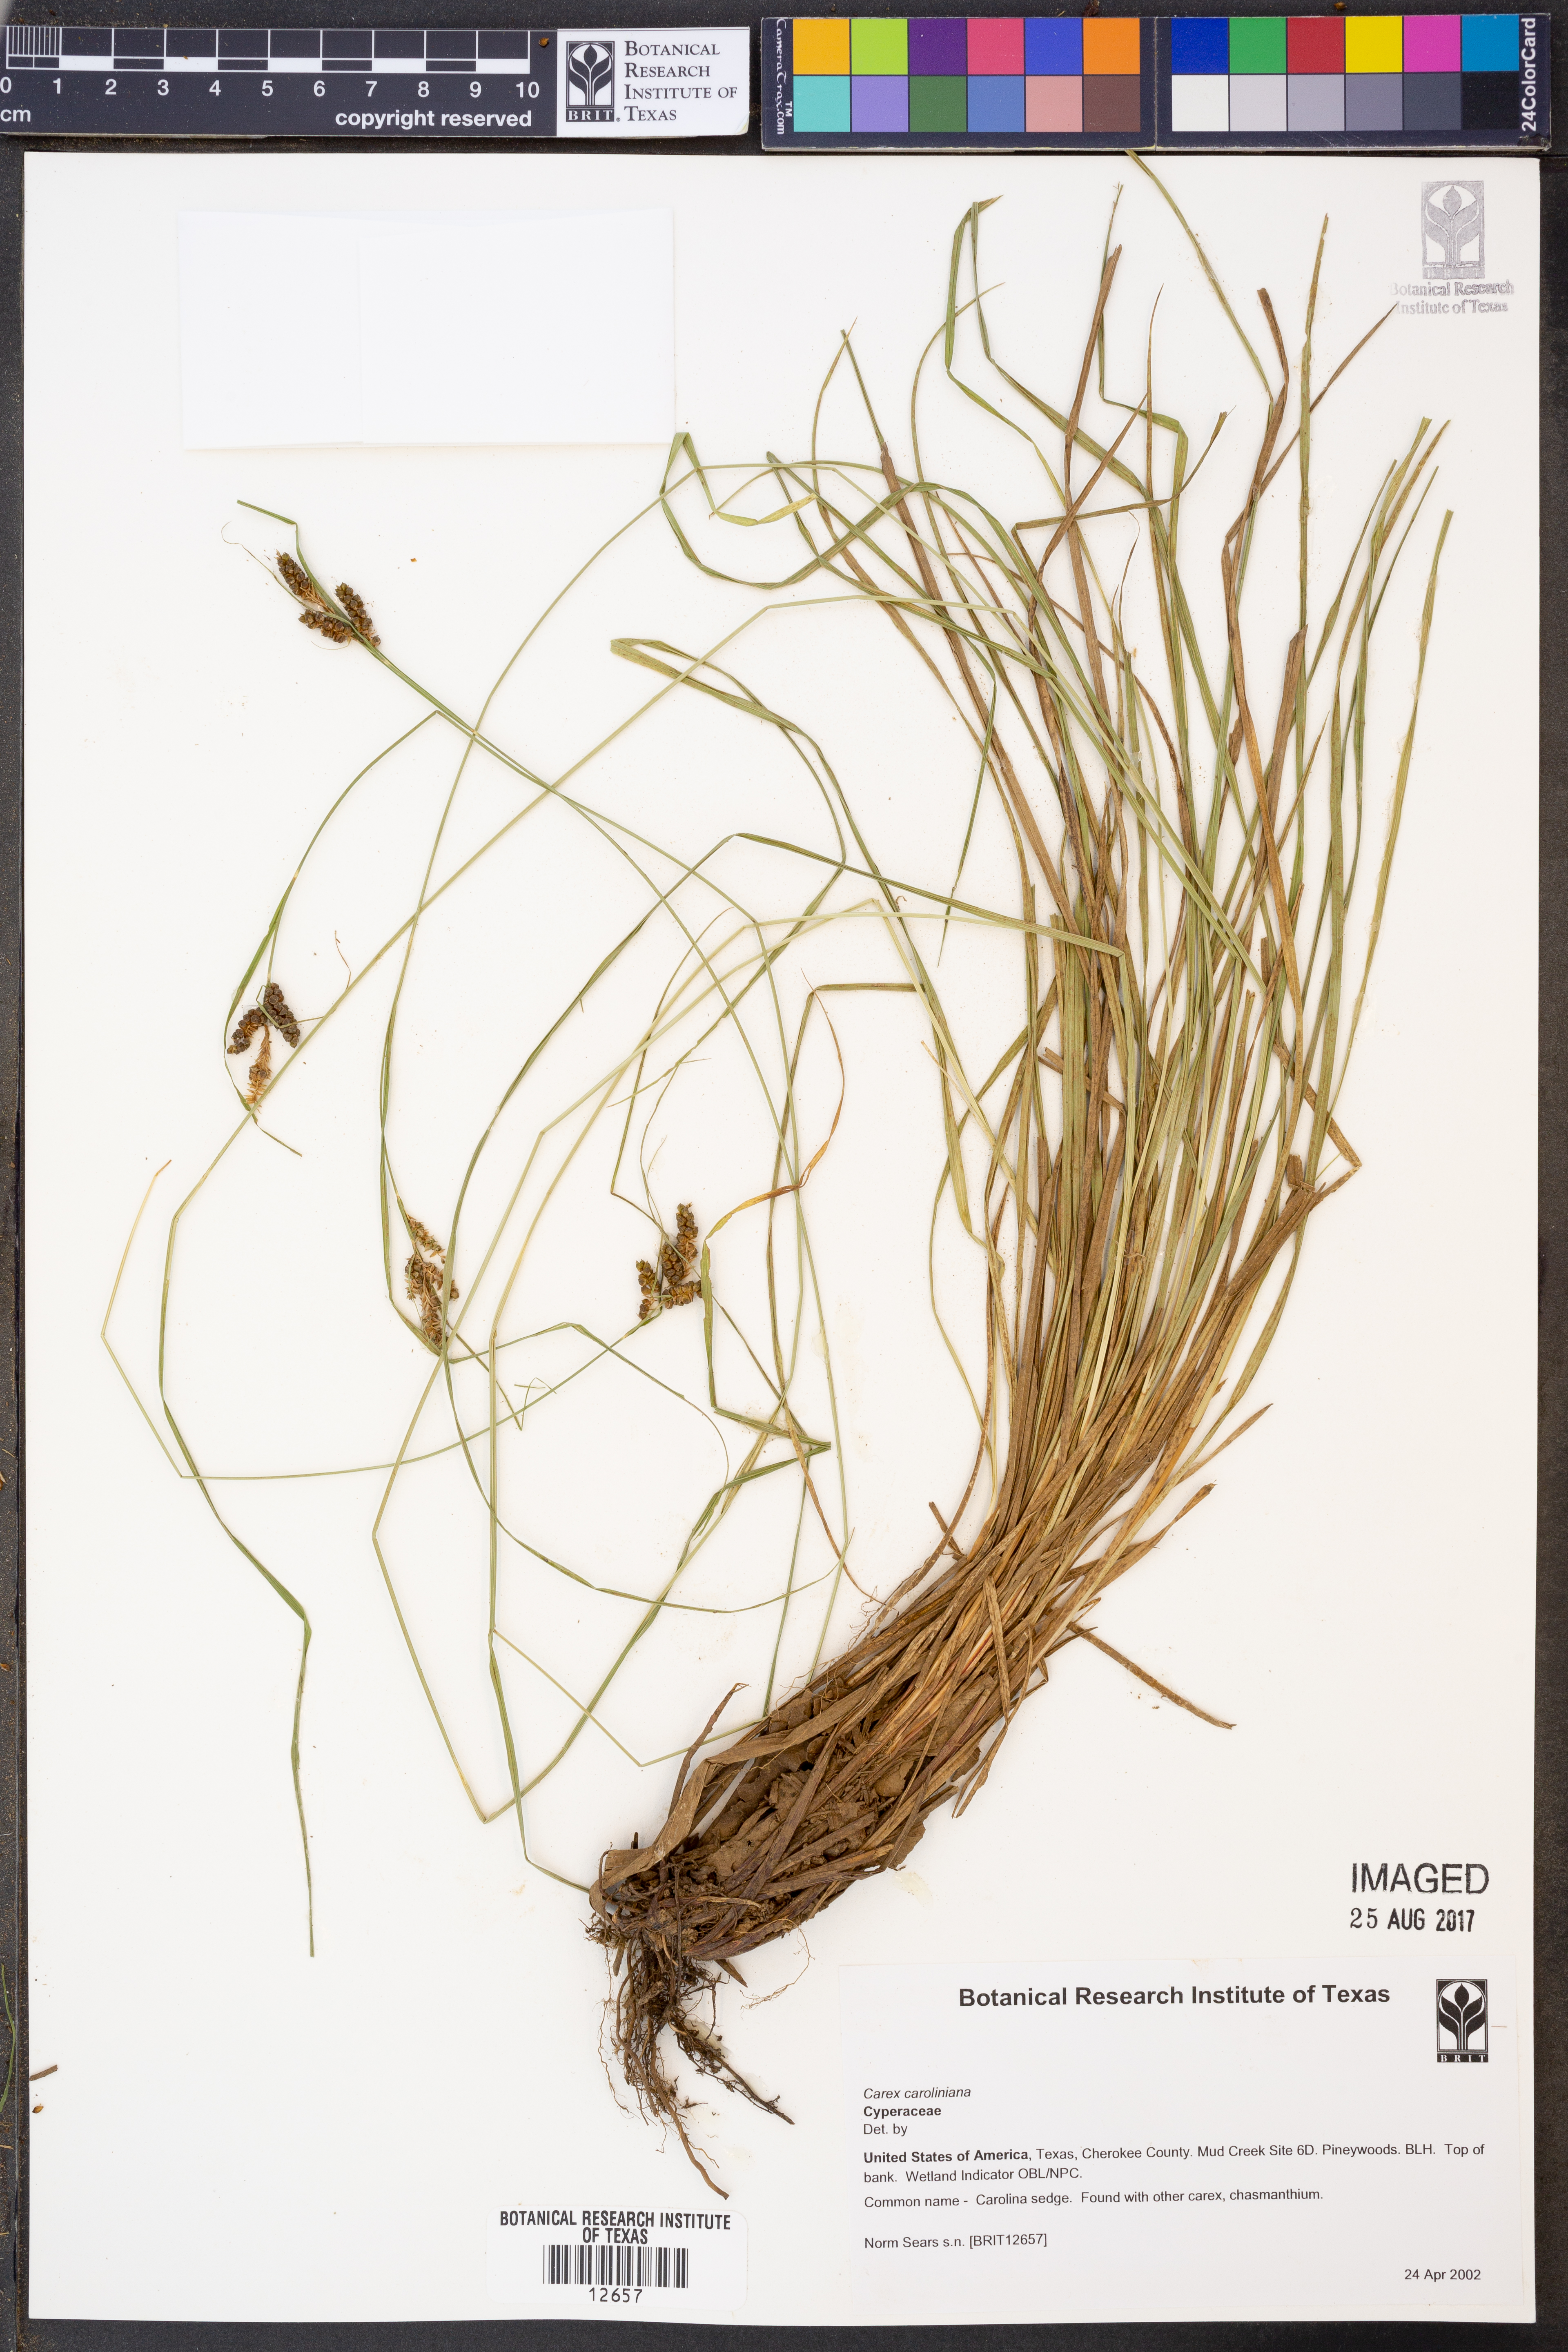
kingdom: Plantae
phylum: Tracheophyta
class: Liliopsida
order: Poales
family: Cyperaceae
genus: Carex
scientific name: Carex caroliniana
